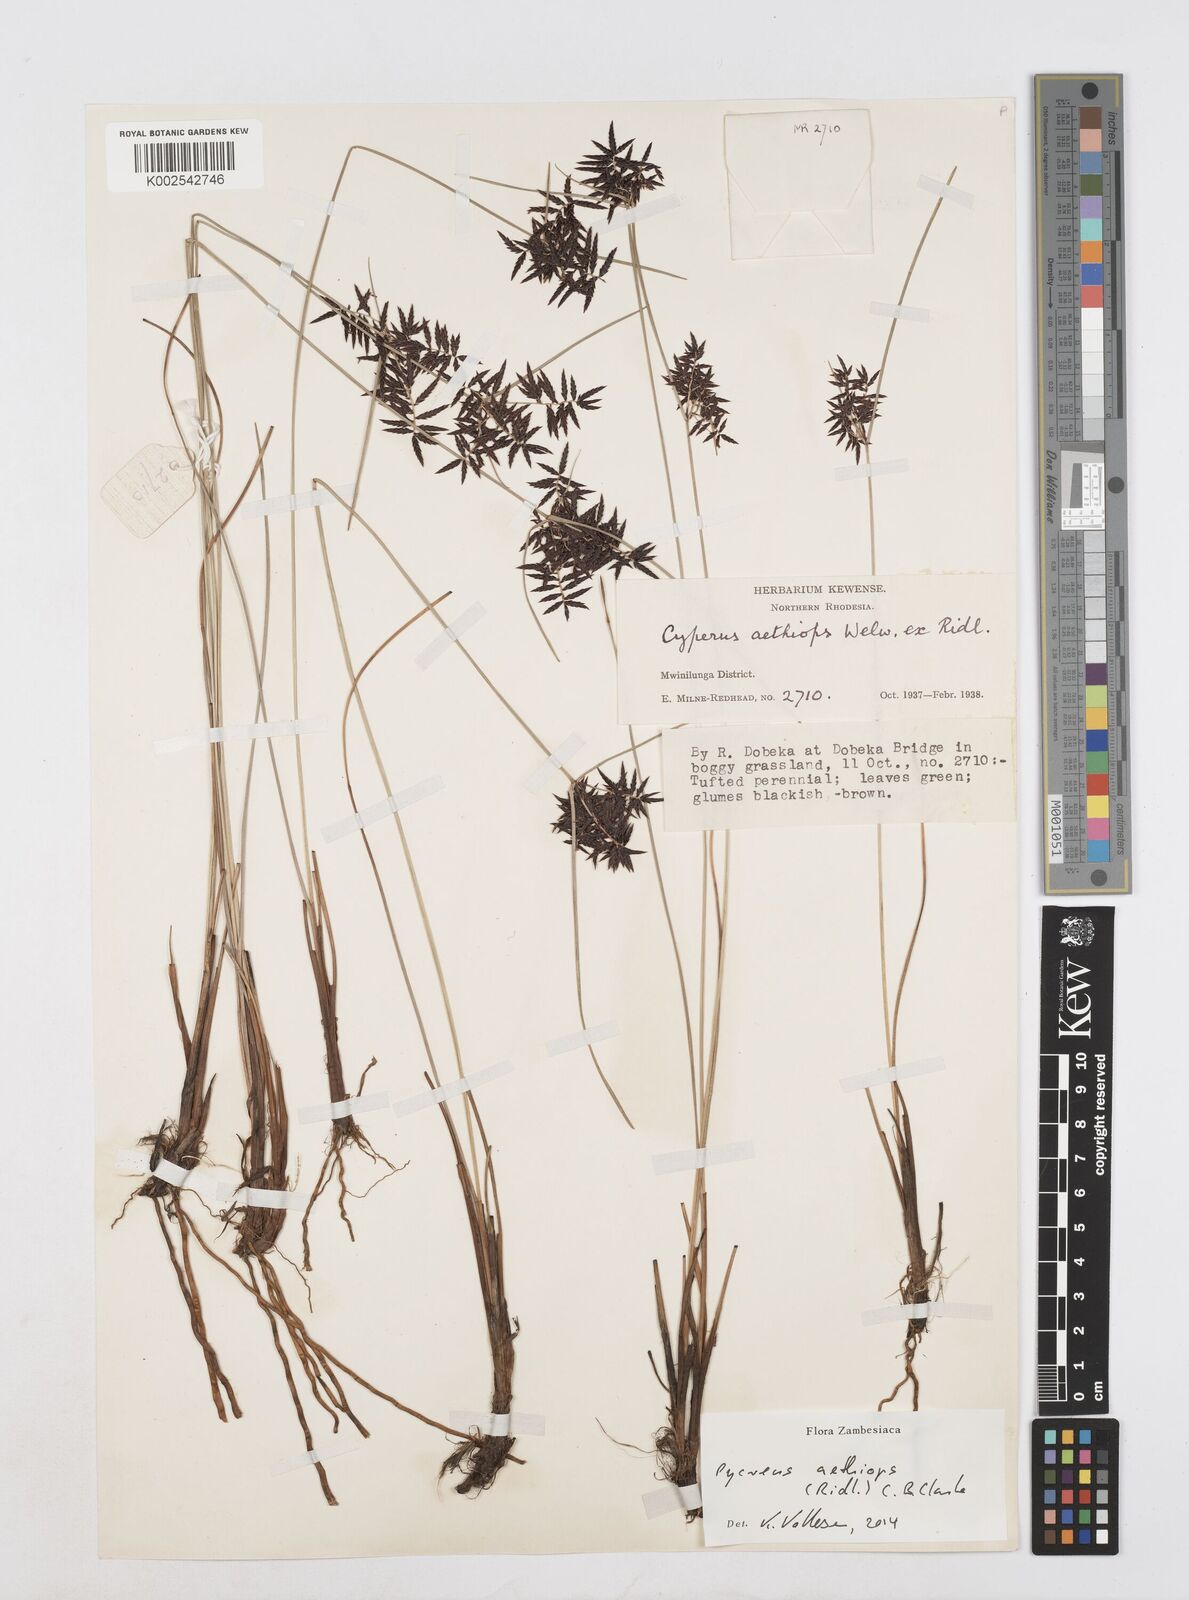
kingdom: Plantae
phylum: Tracheophyta
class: Liliopsida
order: Poales
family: Cyperaceae
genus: Cyperus
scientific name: Cyperus aethiops
